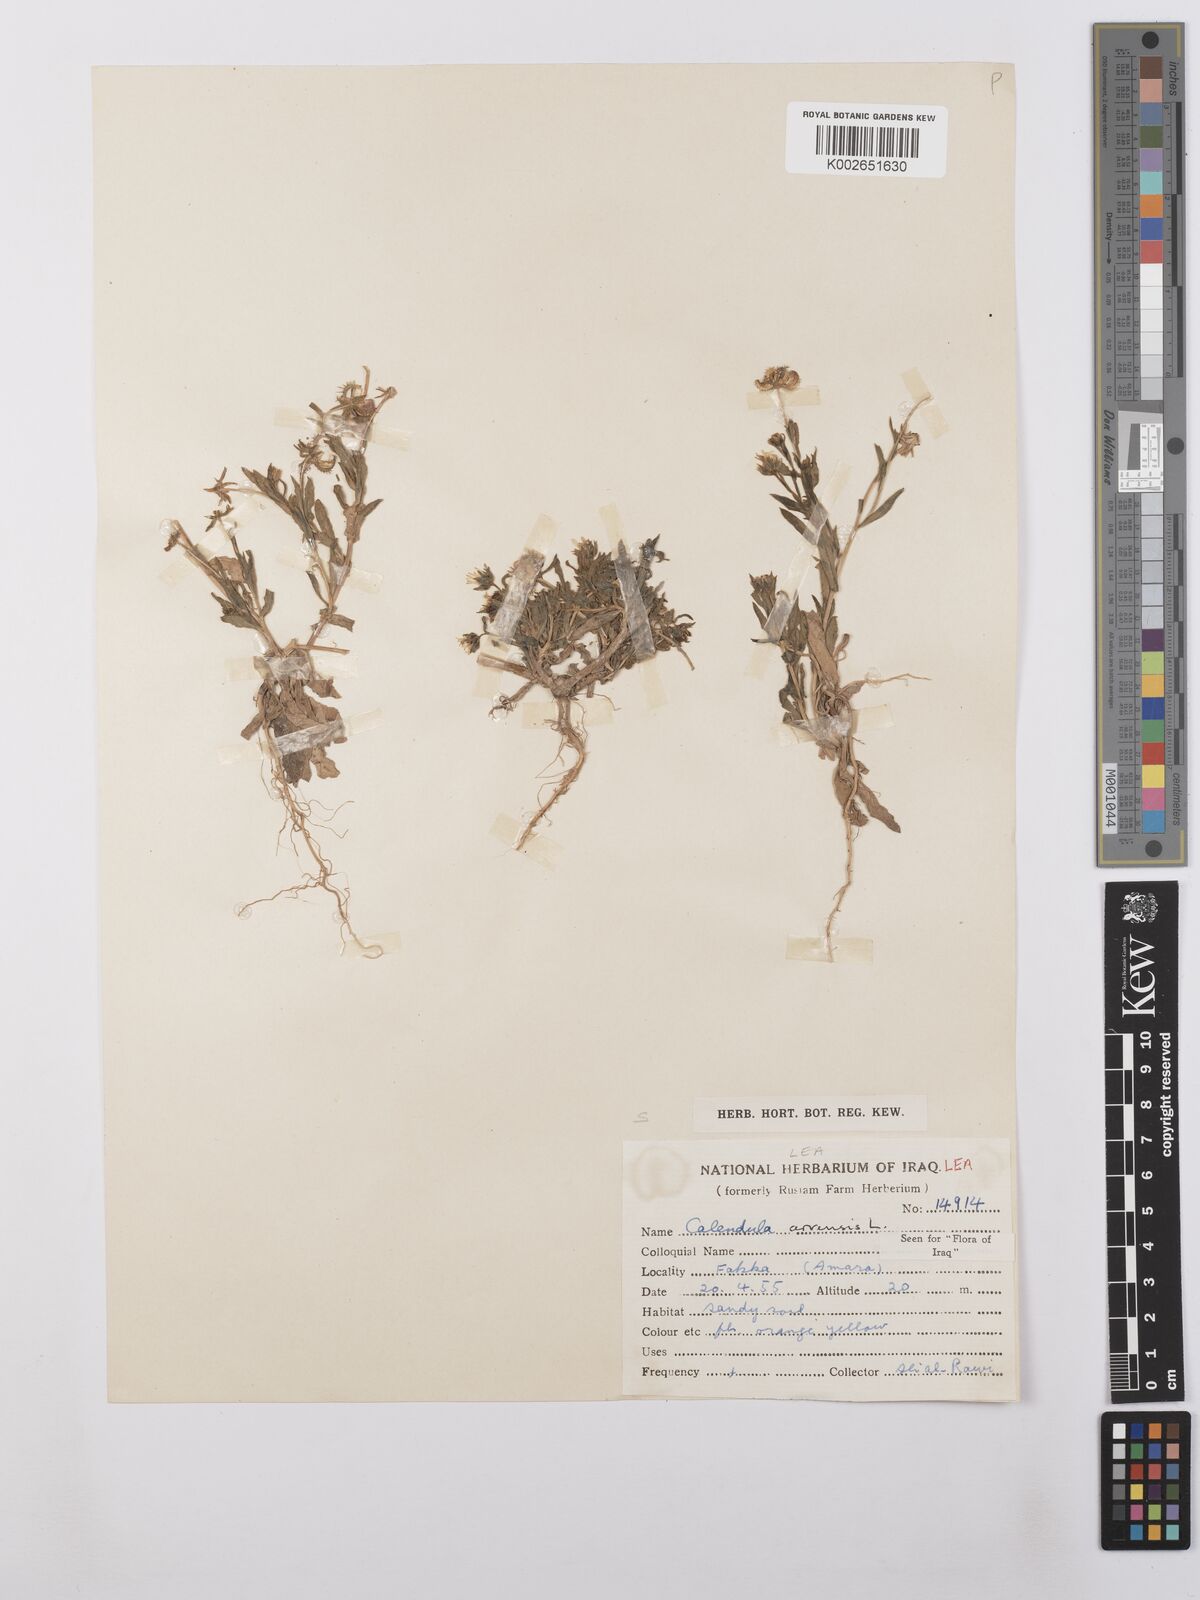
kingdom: Plantae
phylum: Tracheophyta
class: Magnoliopsida
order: Asterales
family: Asteraceae
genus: Calendula
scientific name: Calendula arvensis
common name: Field marigold
